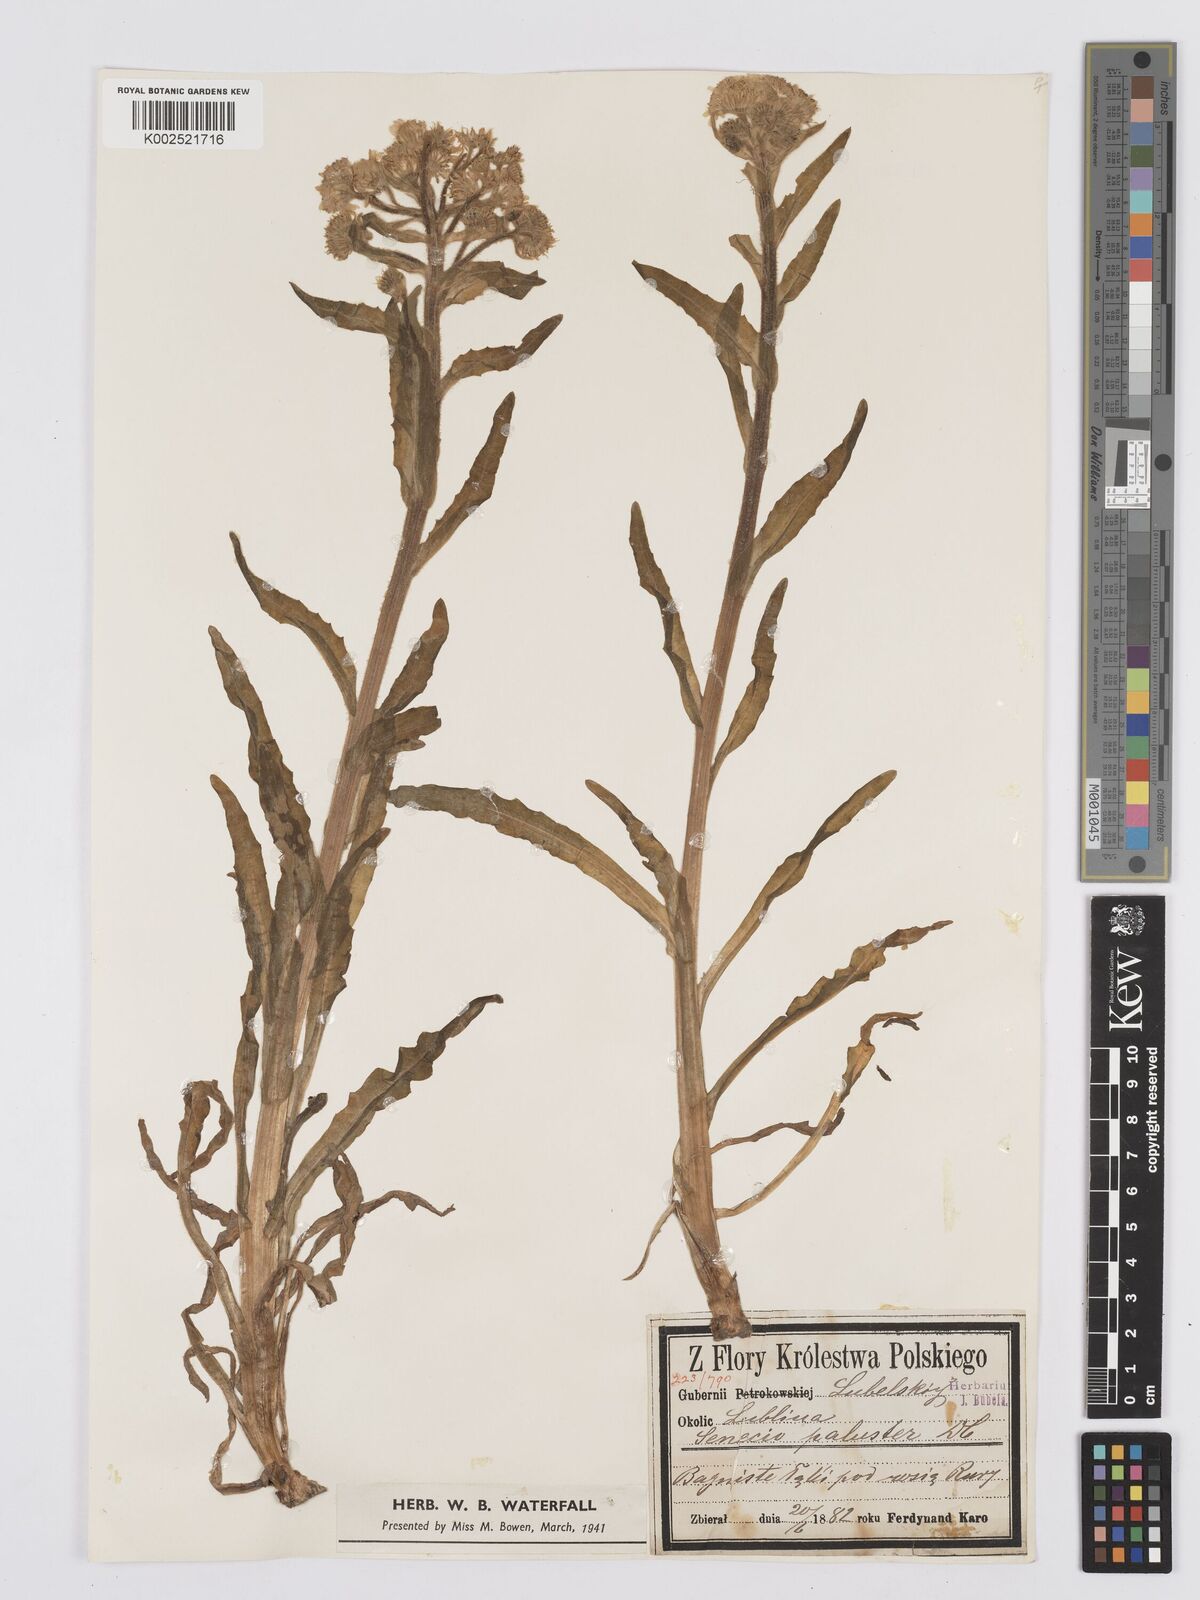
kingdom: Plantae
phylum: Tracheophyta
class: Magnoliopsida
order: Asterales
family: Asteraceae
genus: Tephroseris
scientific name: Tephroseris palustris
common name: Marsh fleawort
